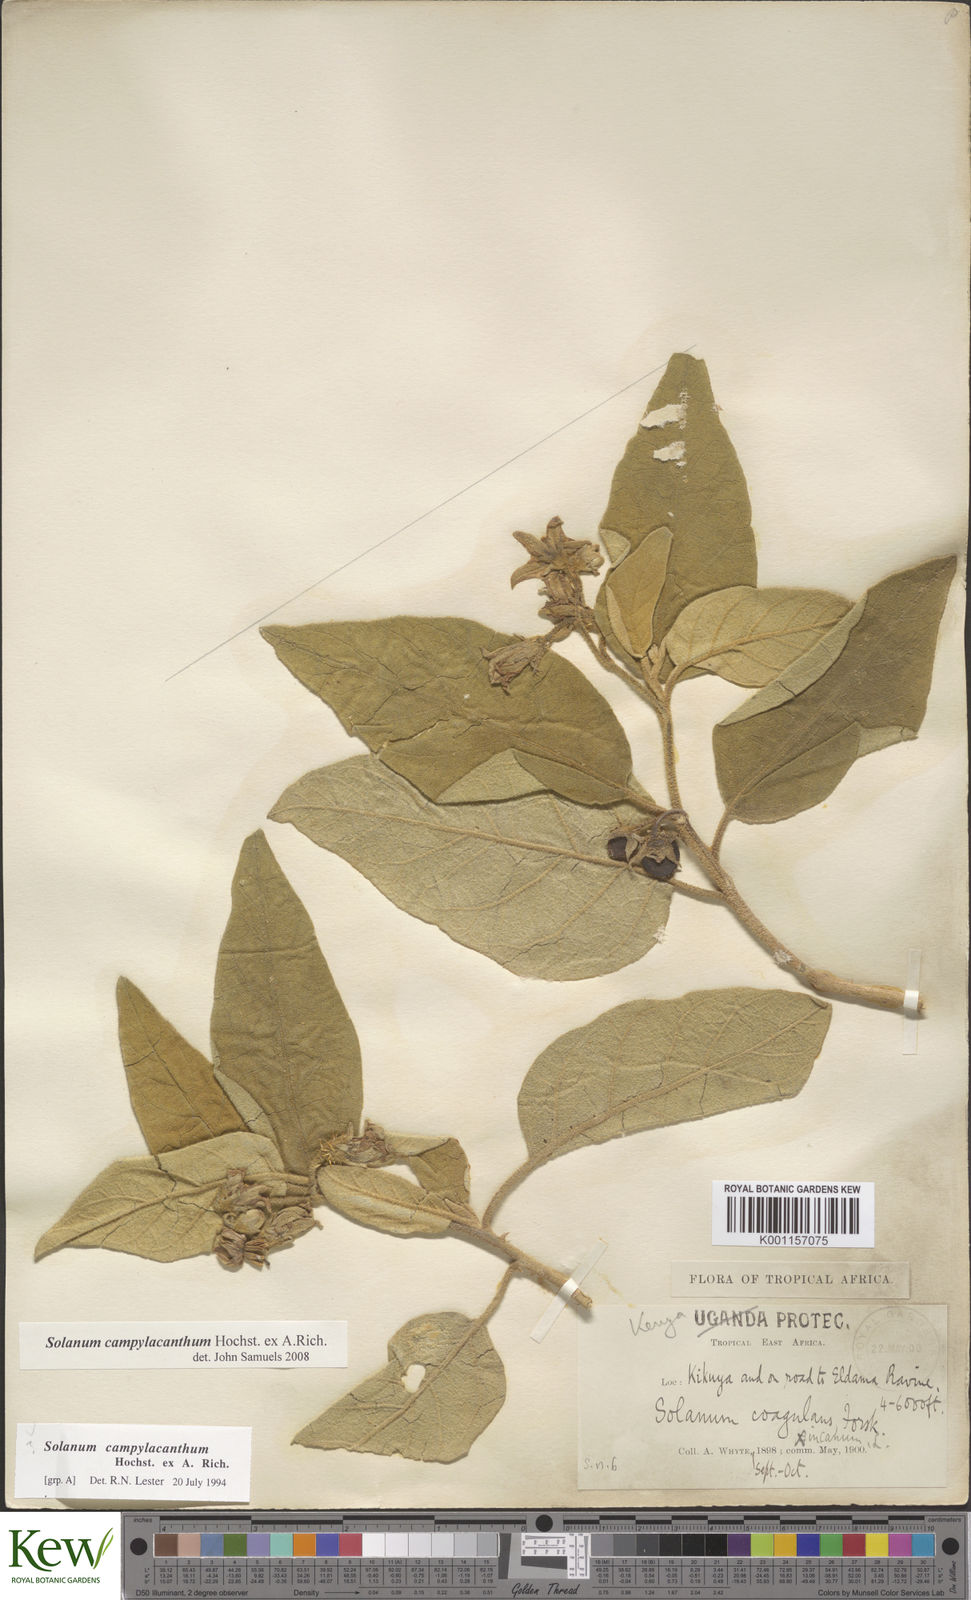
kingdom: Plantae
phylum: Tracheophyta
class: Magnoliopsida
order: Solanales
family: Solanaceae
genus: Solanum
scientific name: Solanum campylacanthum
